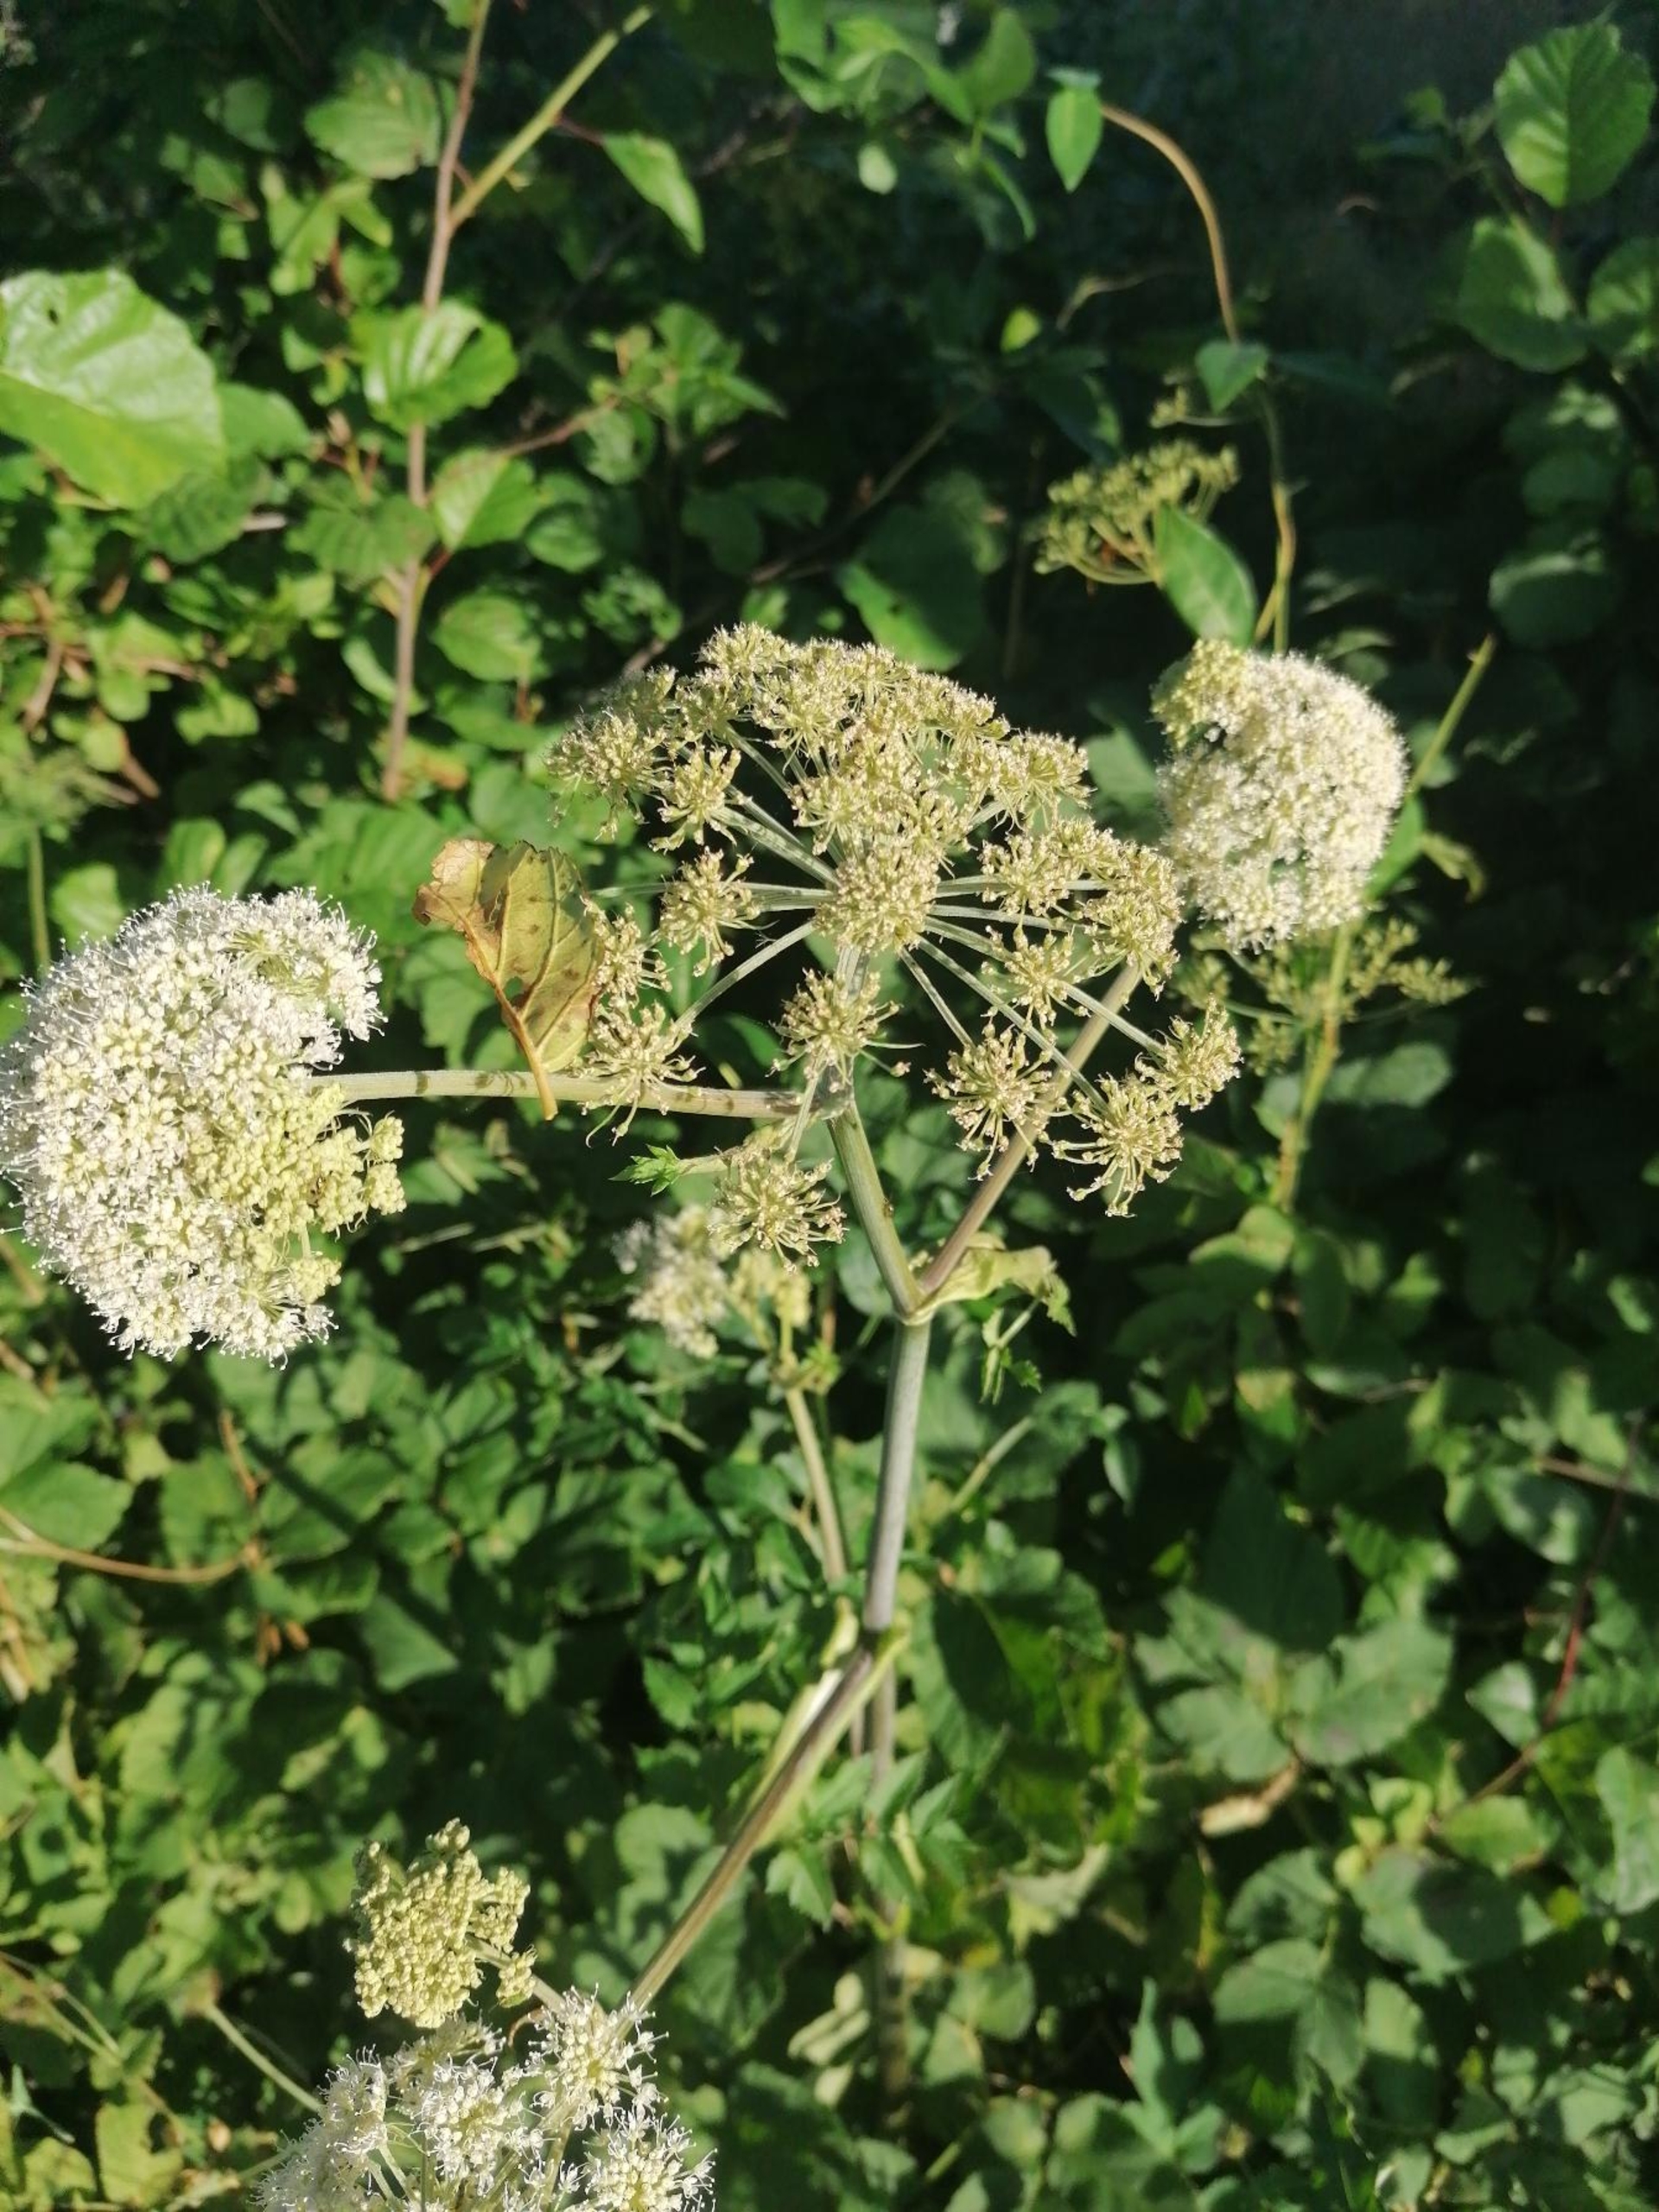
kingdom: Plantae
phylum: Tracheophyta
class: Magnoliopsida
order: Apiales
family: Apiaceae
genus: Angelica
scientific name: Angelica sylvestris
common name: Angelik
